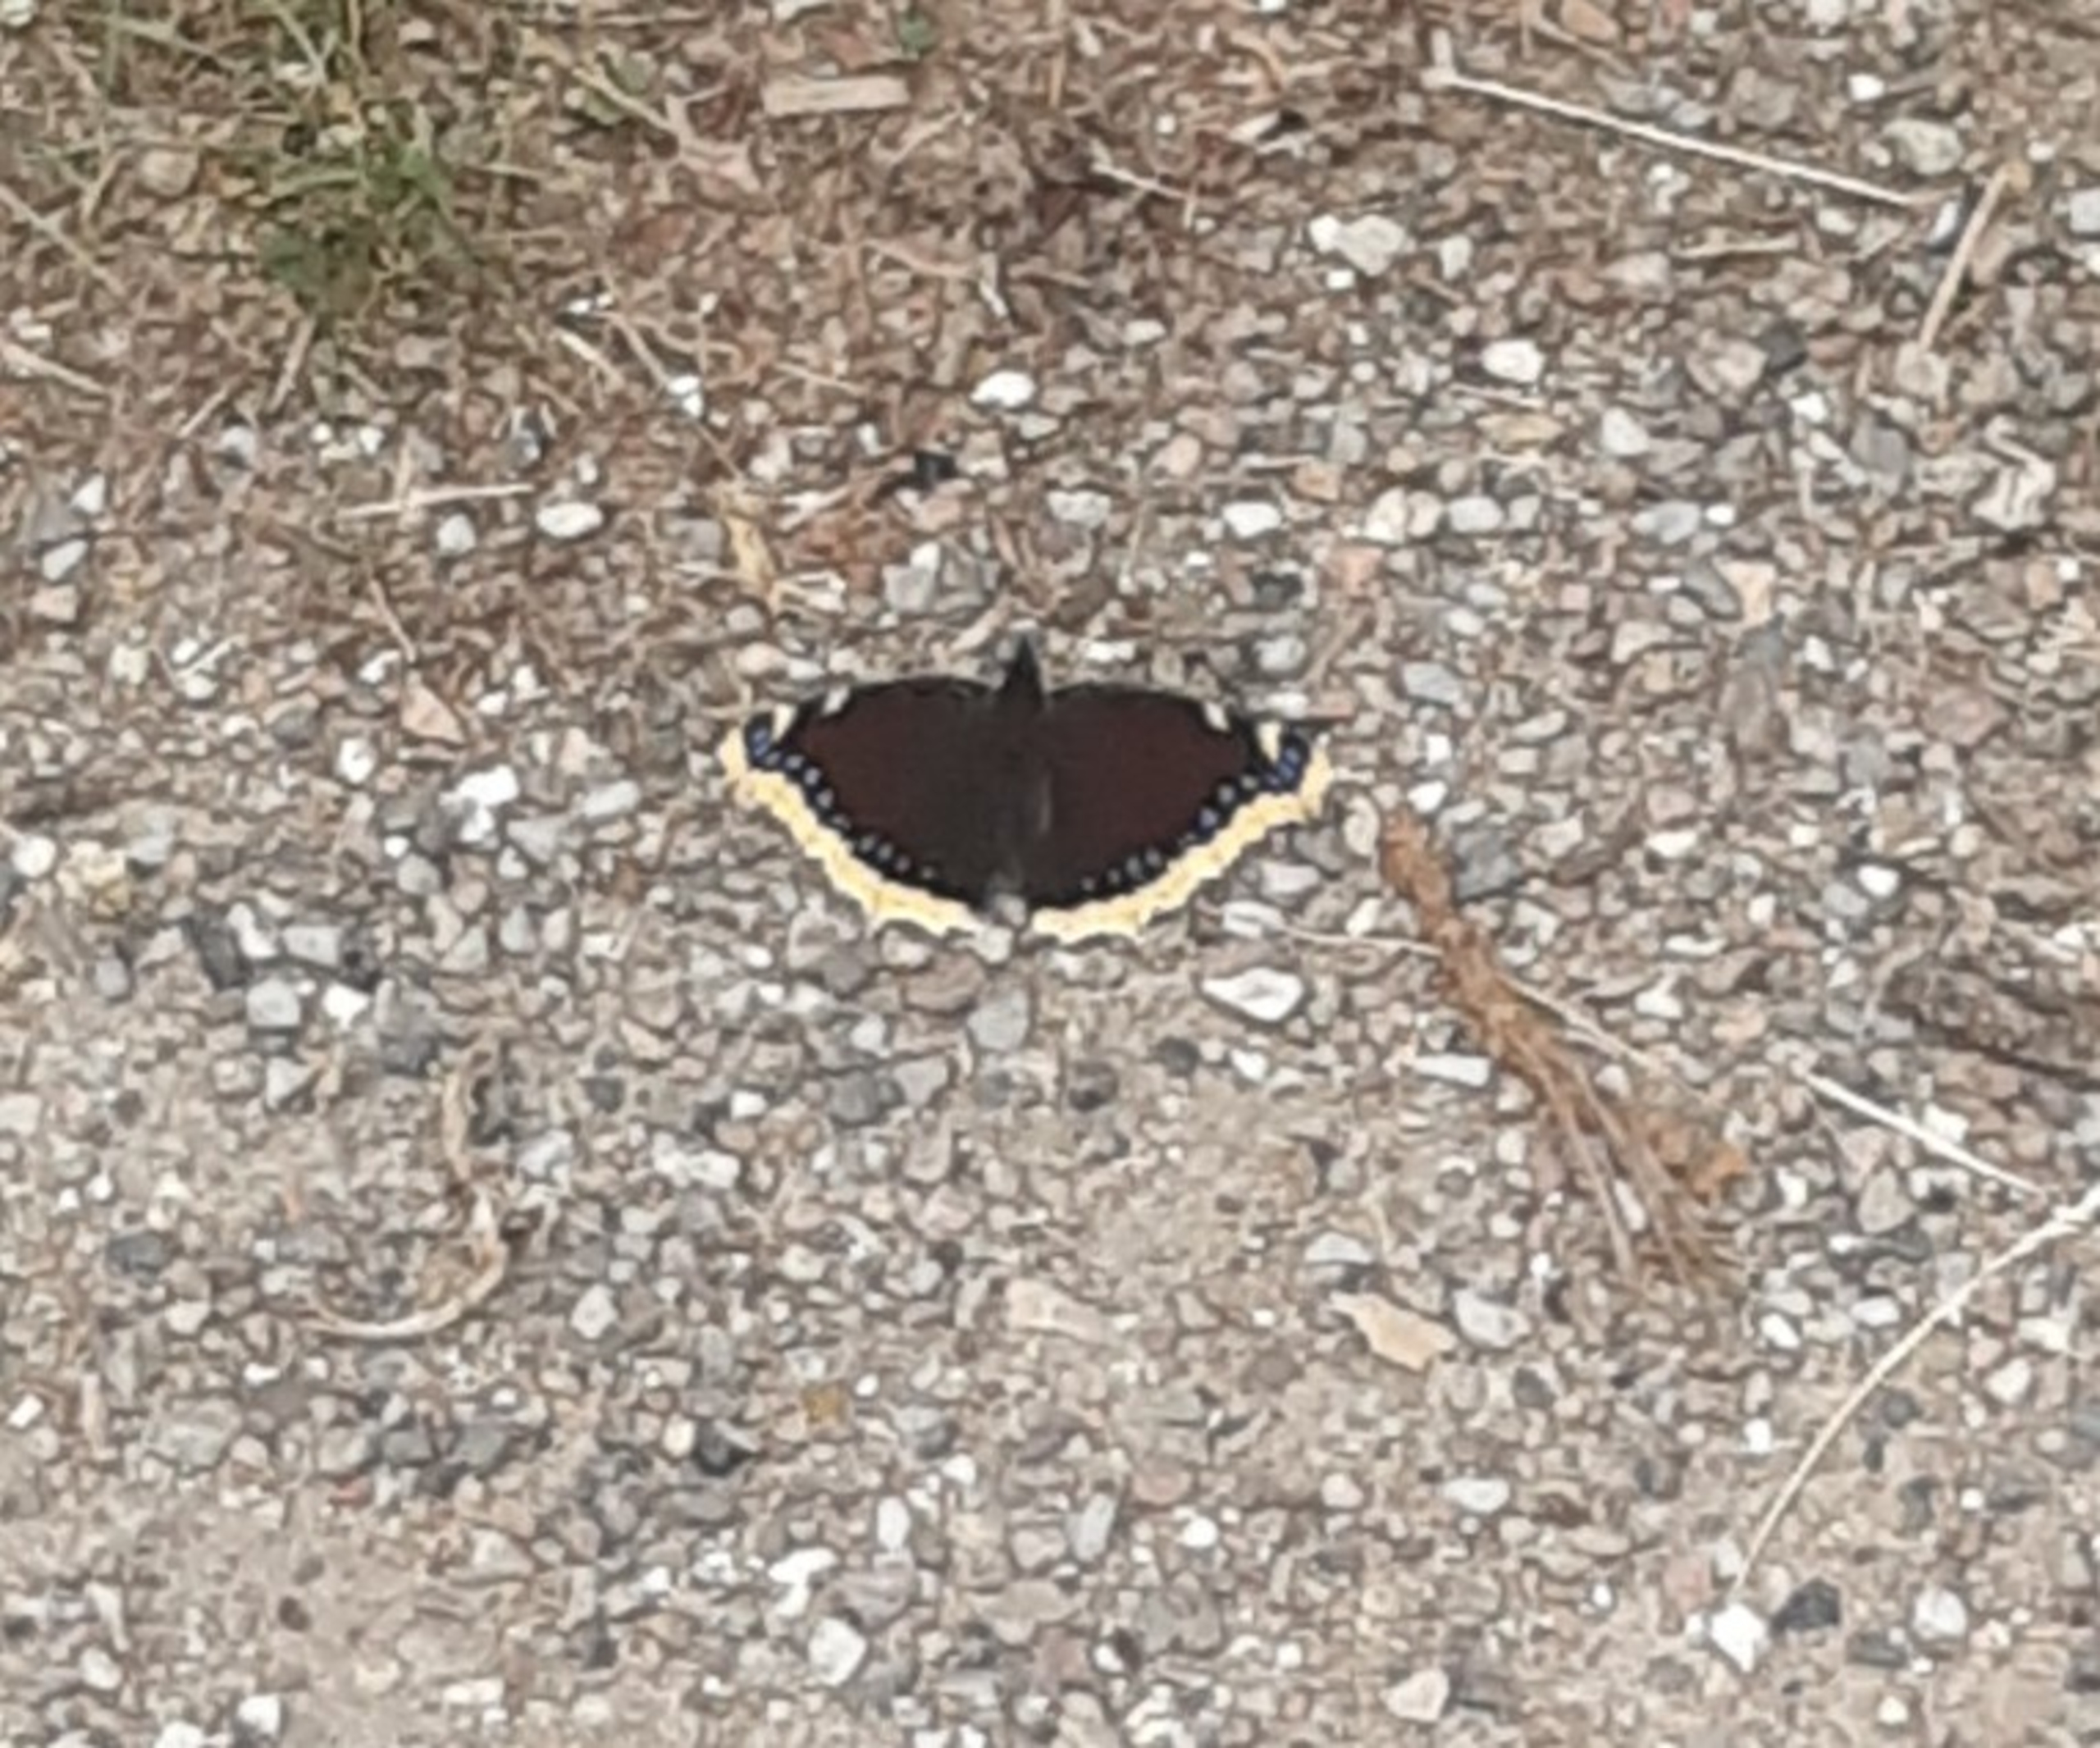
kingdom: Animalia
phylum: Arthropoda
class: Insecta
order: Lepidoptera
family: Nymphalidae
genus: Nymphalis
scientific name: Nymphalis antiopa
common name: Sørgekåbe
